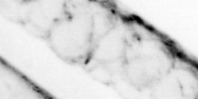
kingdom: Animalia
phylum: Chaetognatha
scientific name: Chaetognatha
